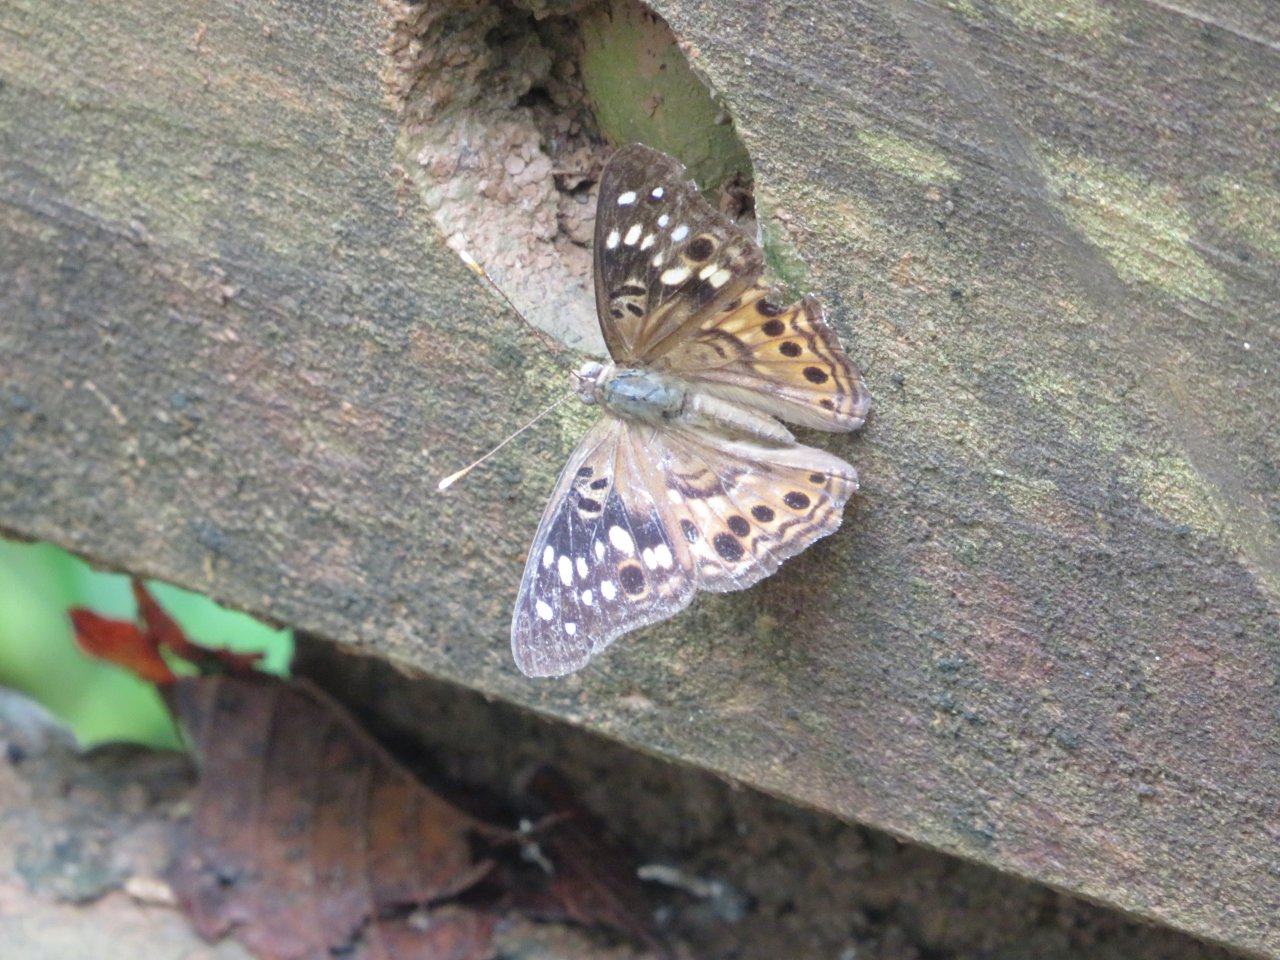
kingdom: Animalia
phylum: Arthropoda
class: Insecta
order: Lepidoptera
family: Nymphalidae
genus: Asterocampa
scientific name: Asterocampa celtis
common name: Hackberry Emperor
